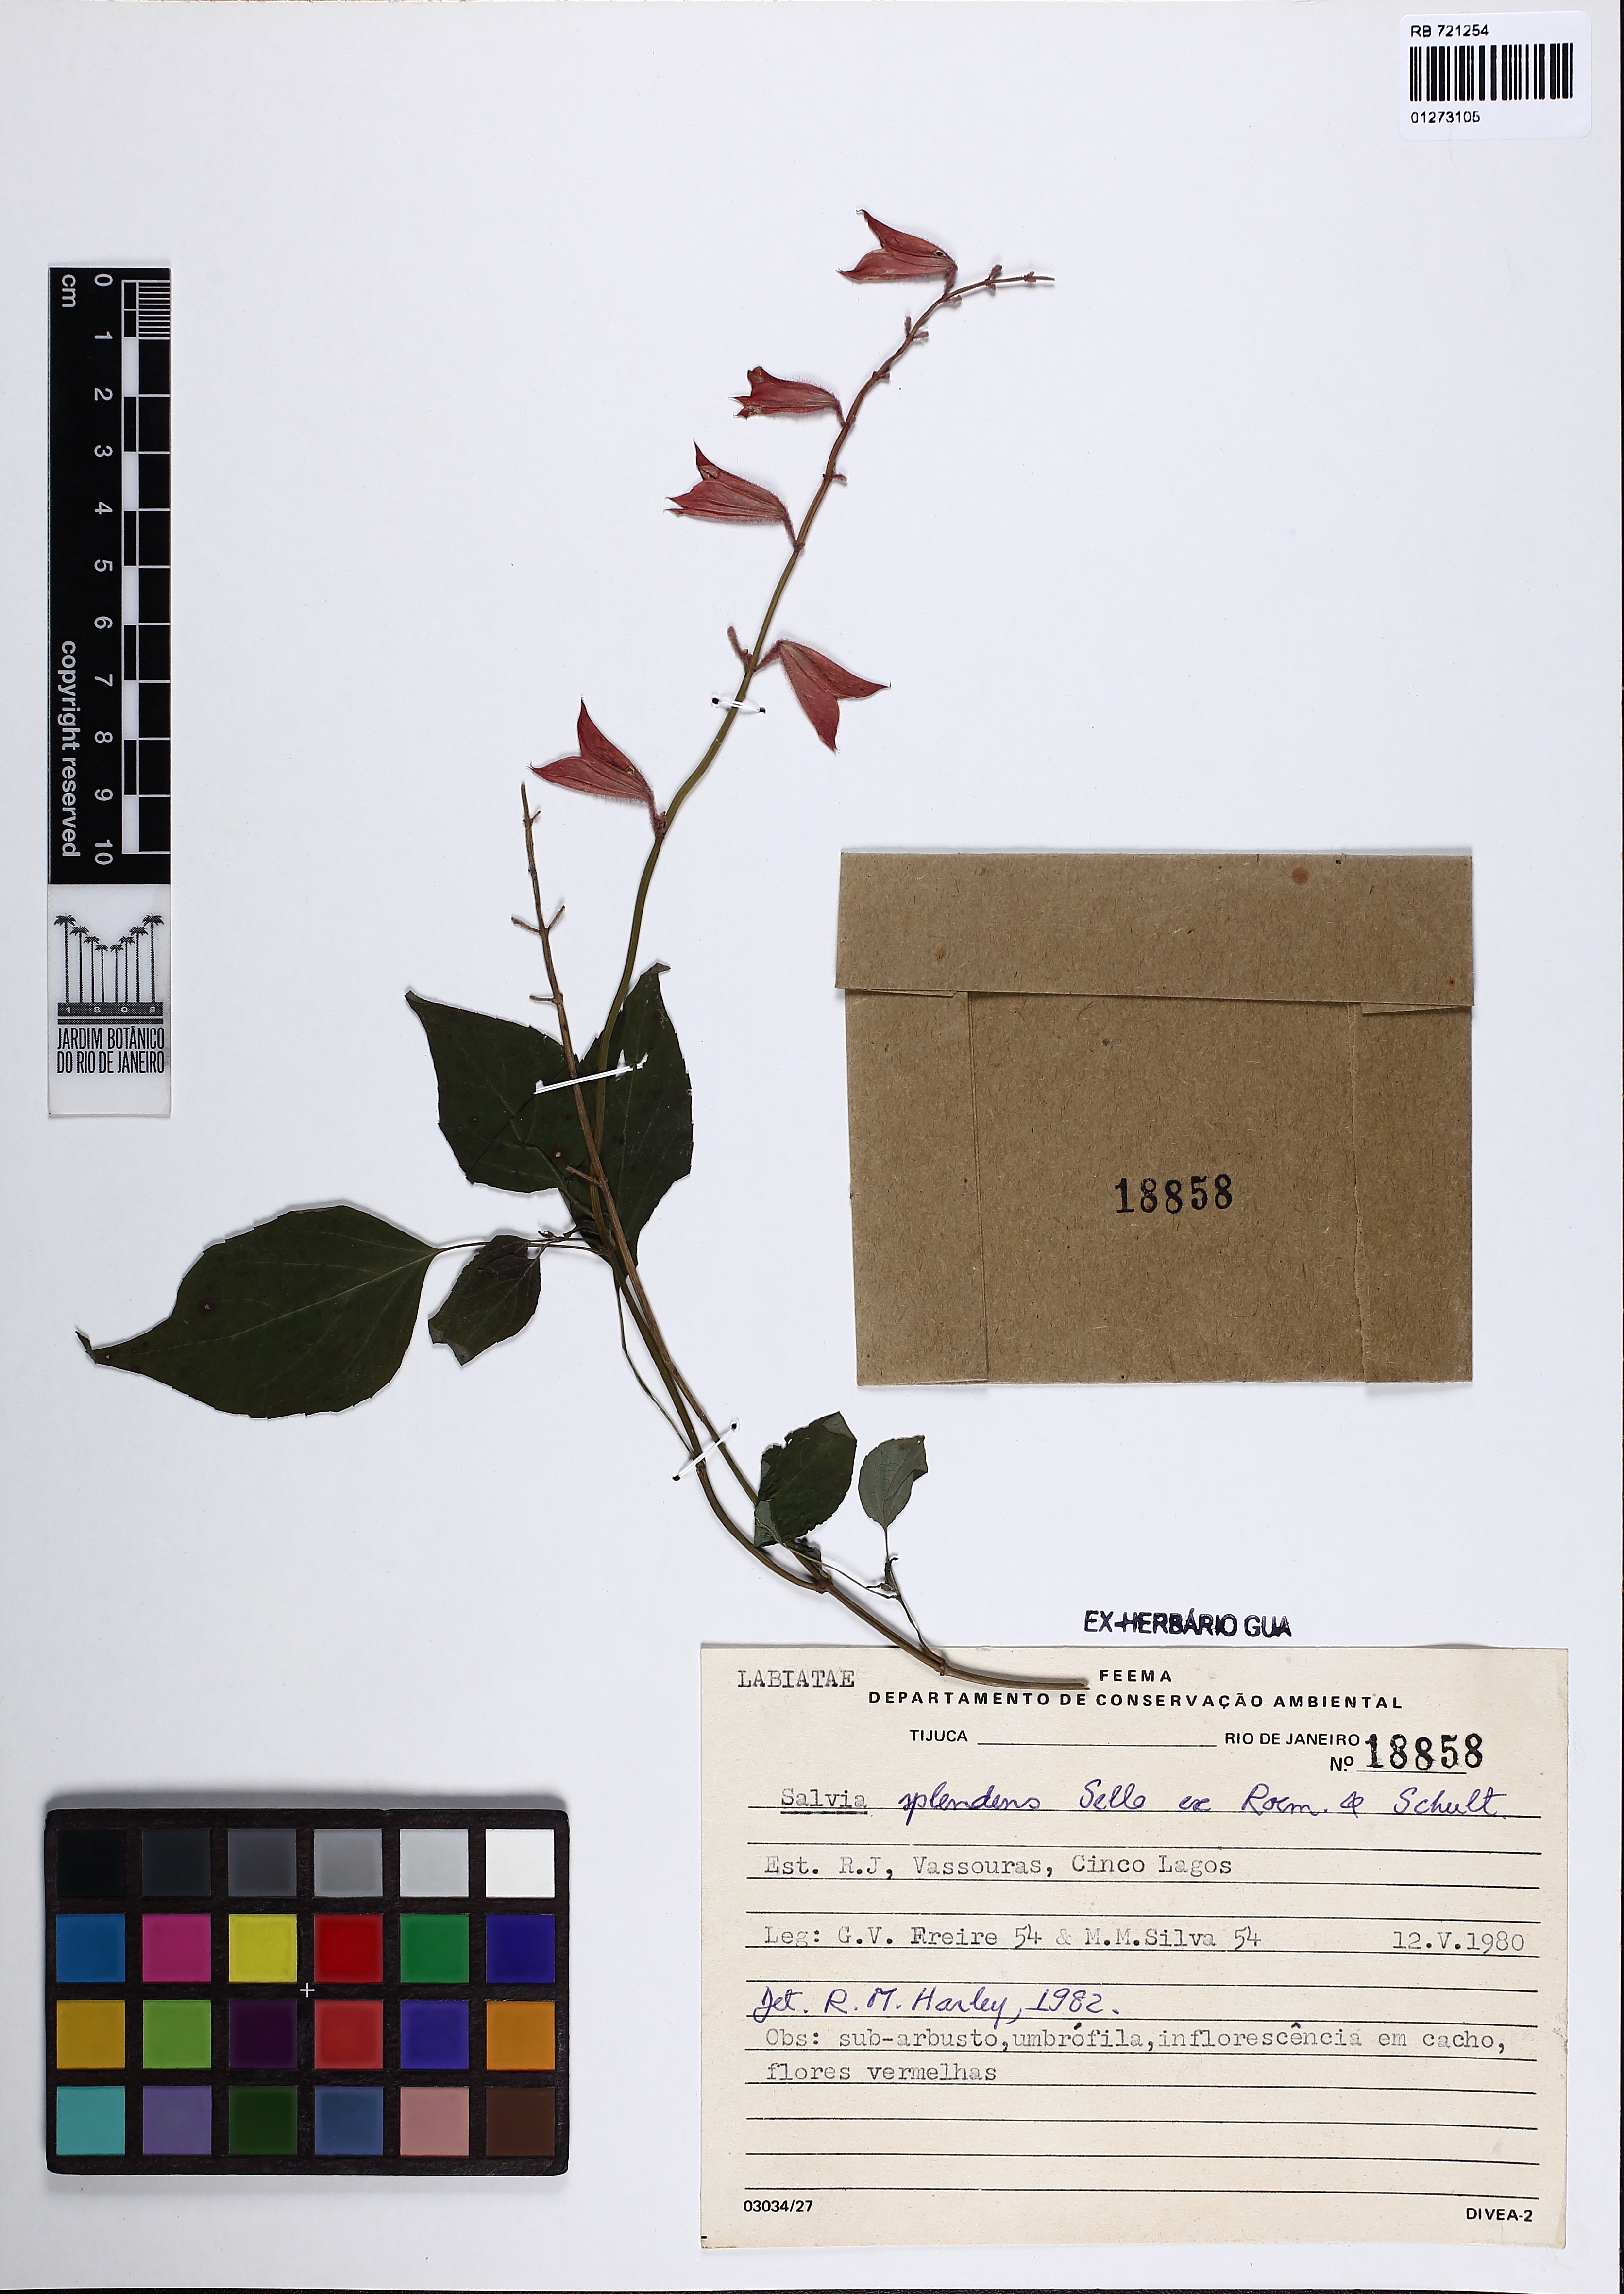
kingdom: Plantae
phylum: Tracheophyta
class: Magnoliopsida
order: Lamiales
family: Lamiaceae
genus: Salvia
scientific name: Salvia splendens
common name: Scarlet sage
